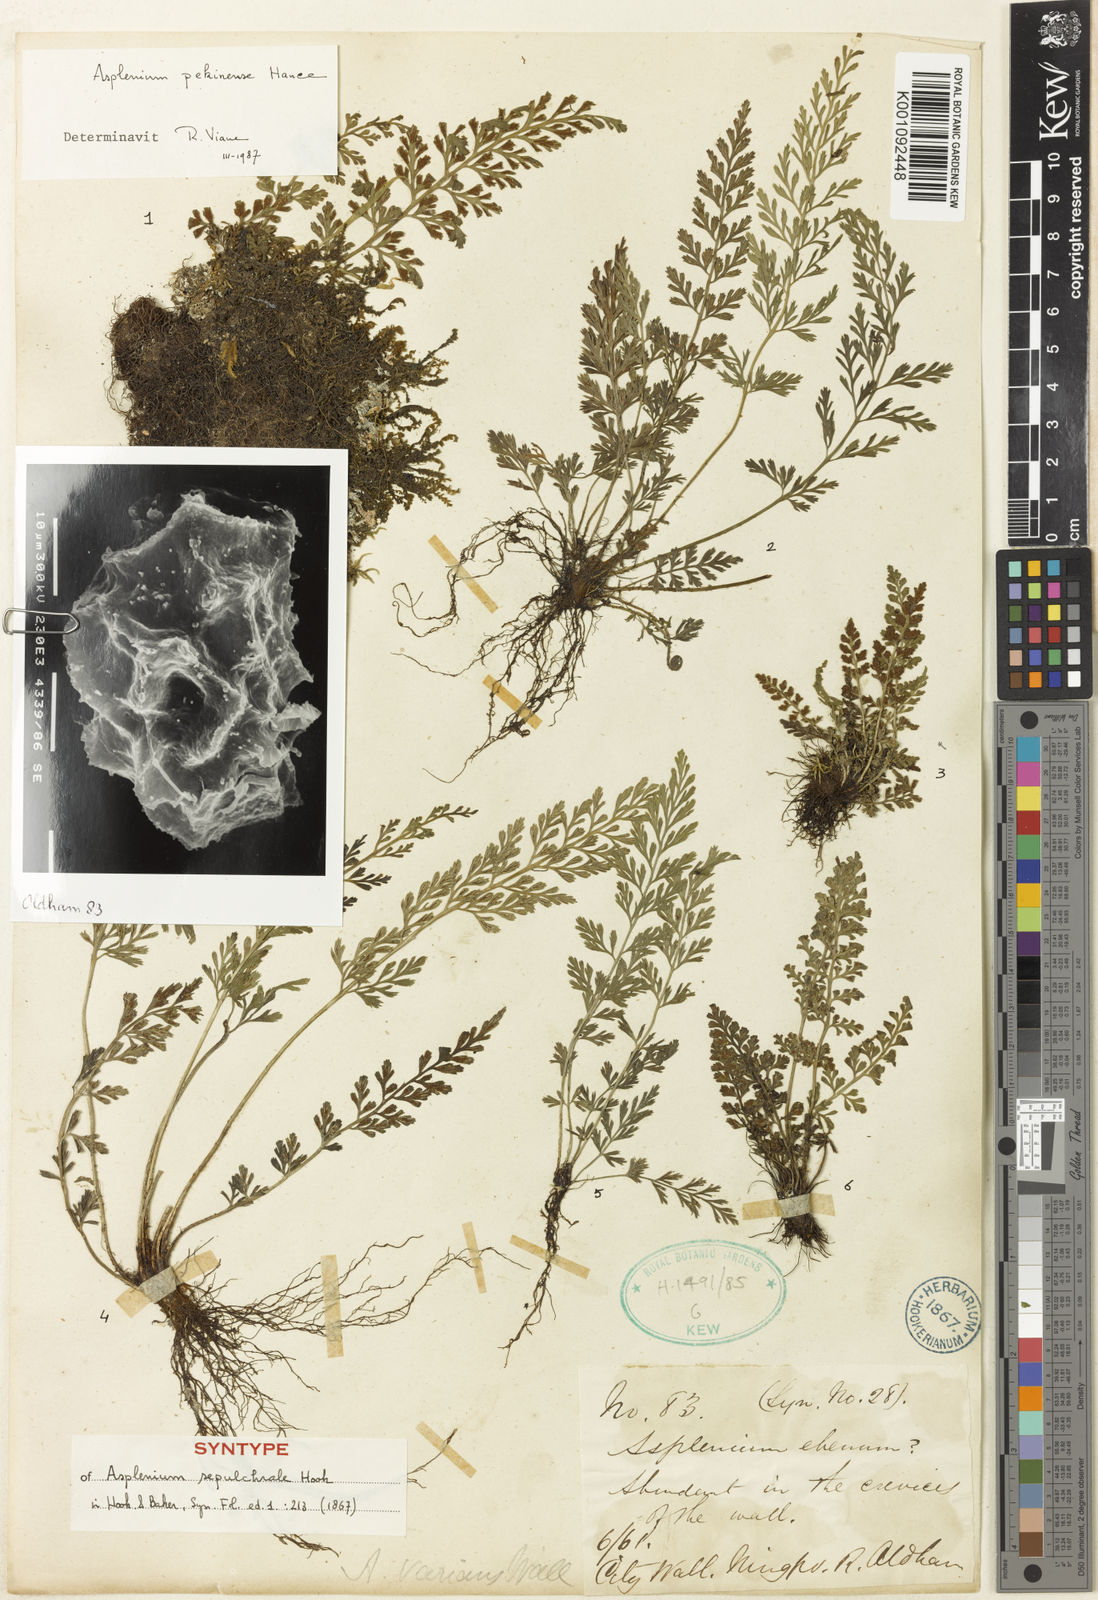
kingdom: Plantae
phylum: Tracheophyta
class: Polypodiopsida
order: Polypodiales
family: Aspleniaceae
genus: Asplenium
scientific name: Asplenium sarelii
